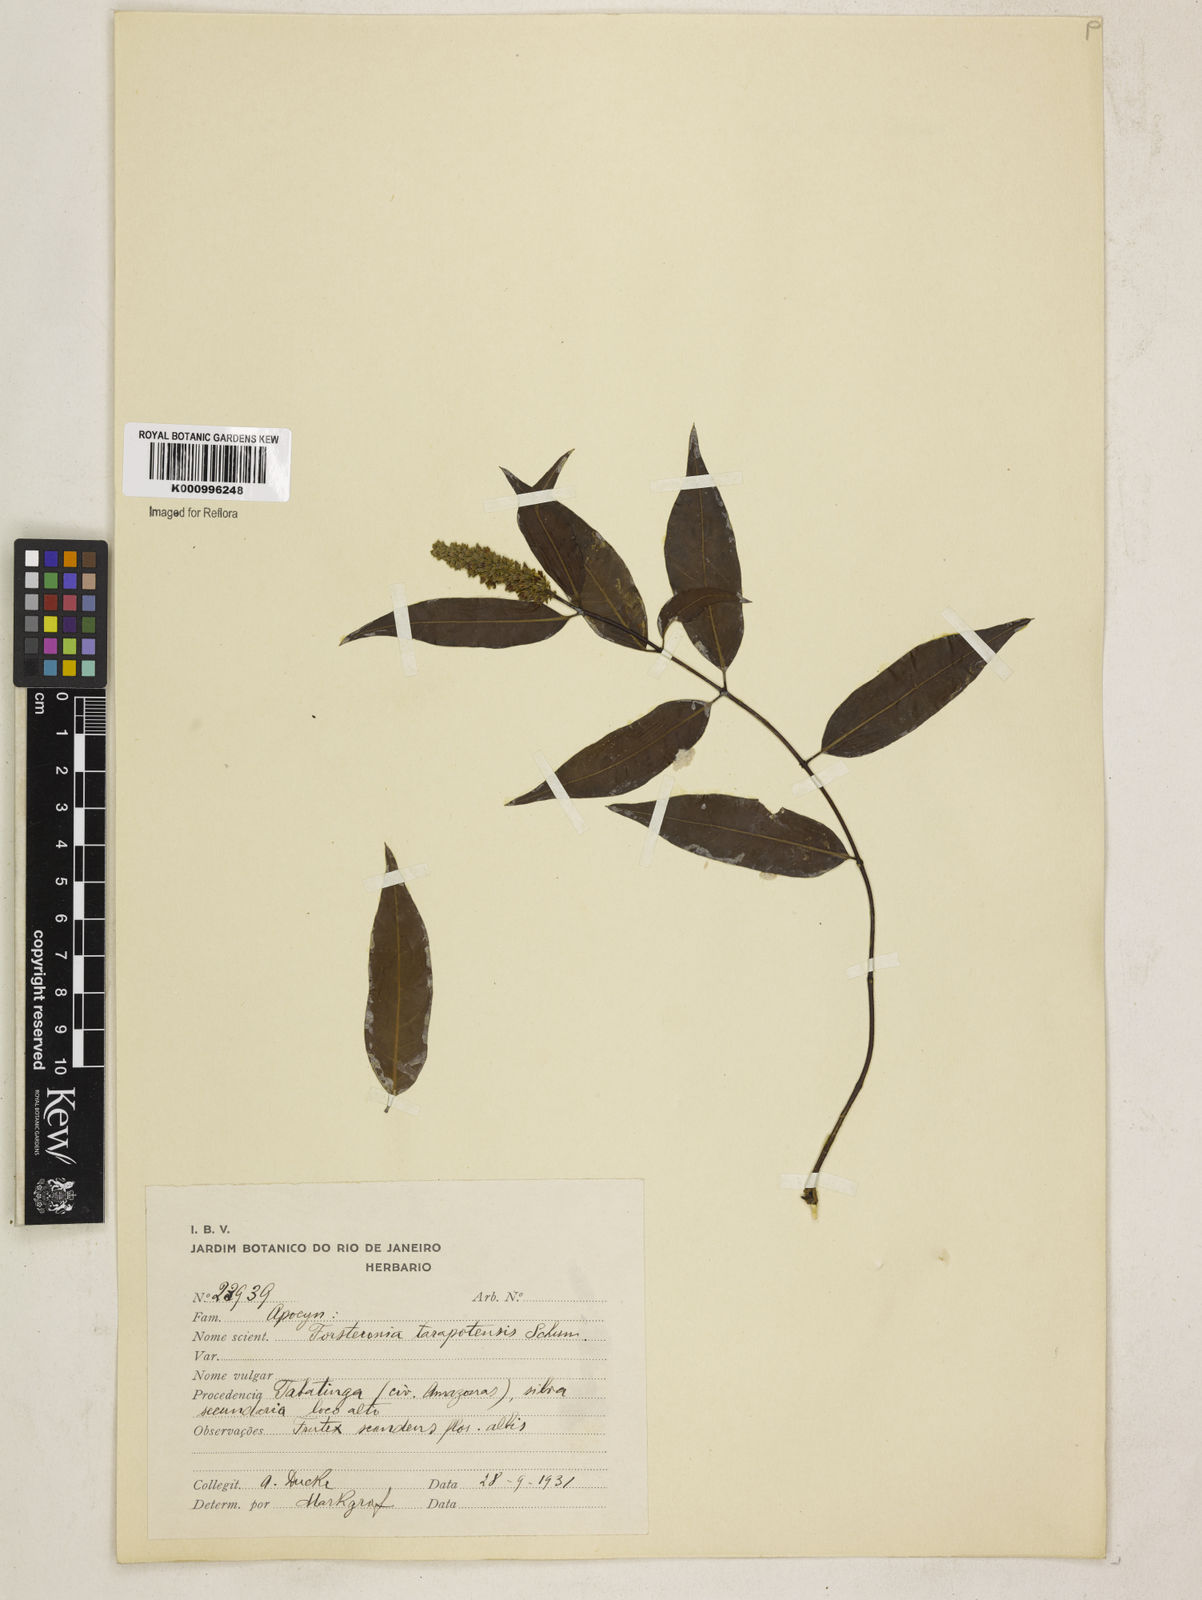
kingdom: Plantae
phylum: Tracheophyta
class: Magnoliopsida
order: Gentianales
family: Apocynaceae
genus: Forsteronia
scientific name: Forsteronia paludosa
